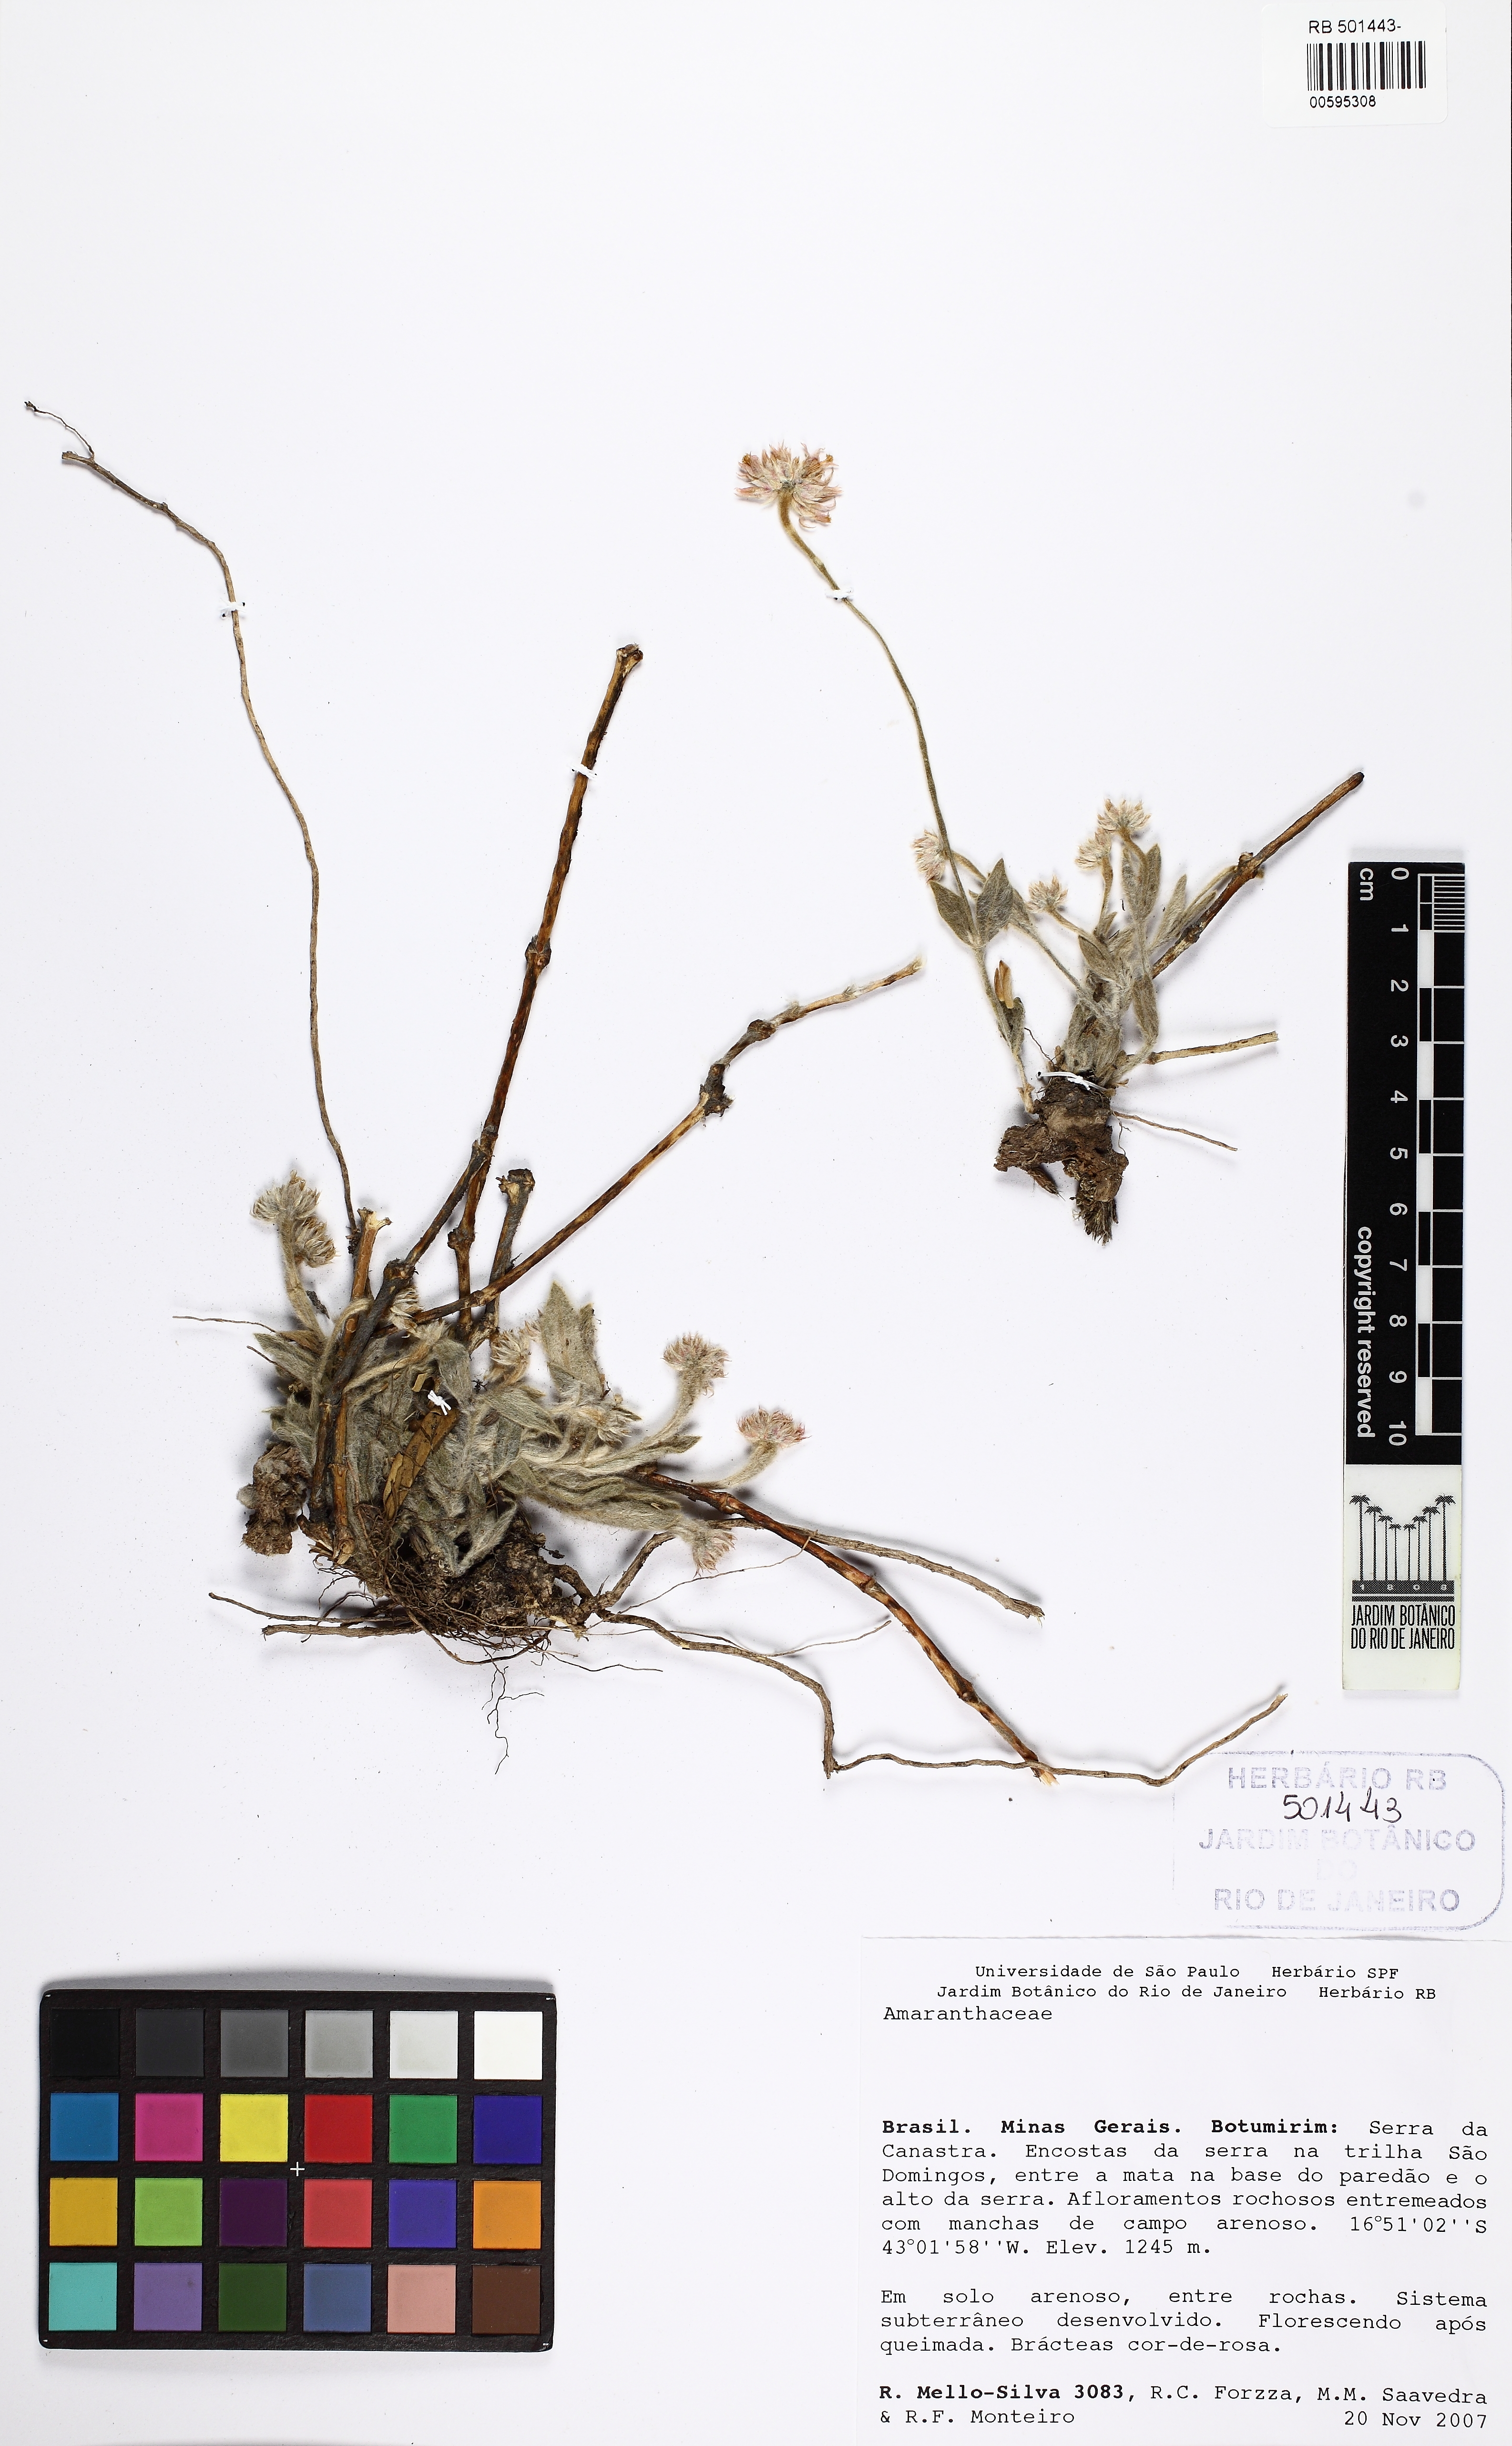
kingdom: Plantae
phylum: Tracheophyta
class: Magnoliopsida
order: Caryophyllales
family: Amaranthaceae
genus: Gomphrena
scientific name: Gomphrena mollis
